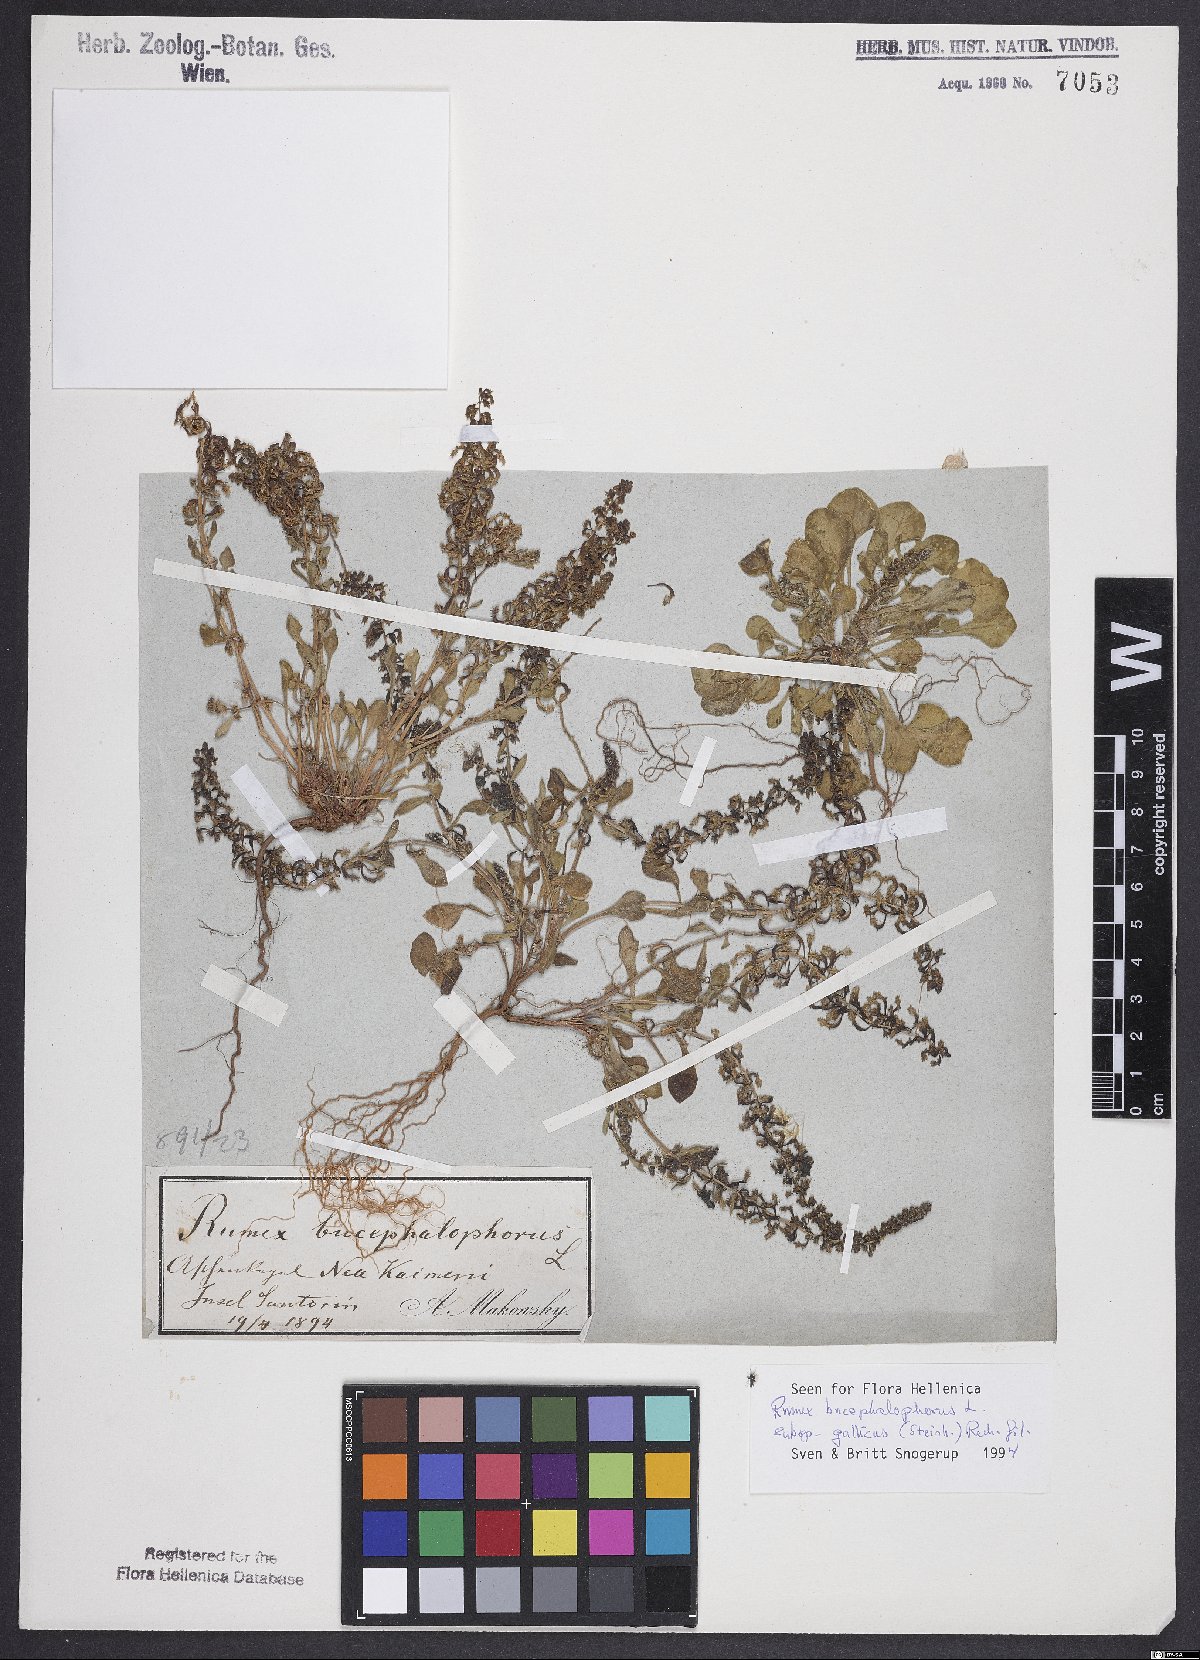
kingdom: Plantae
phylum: Tracheophyta
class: Magnoliopsida
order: Caryophyllales
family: Polygonaceae
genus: Rumex
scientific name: Rumex bucephalophorus
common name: Red dock
